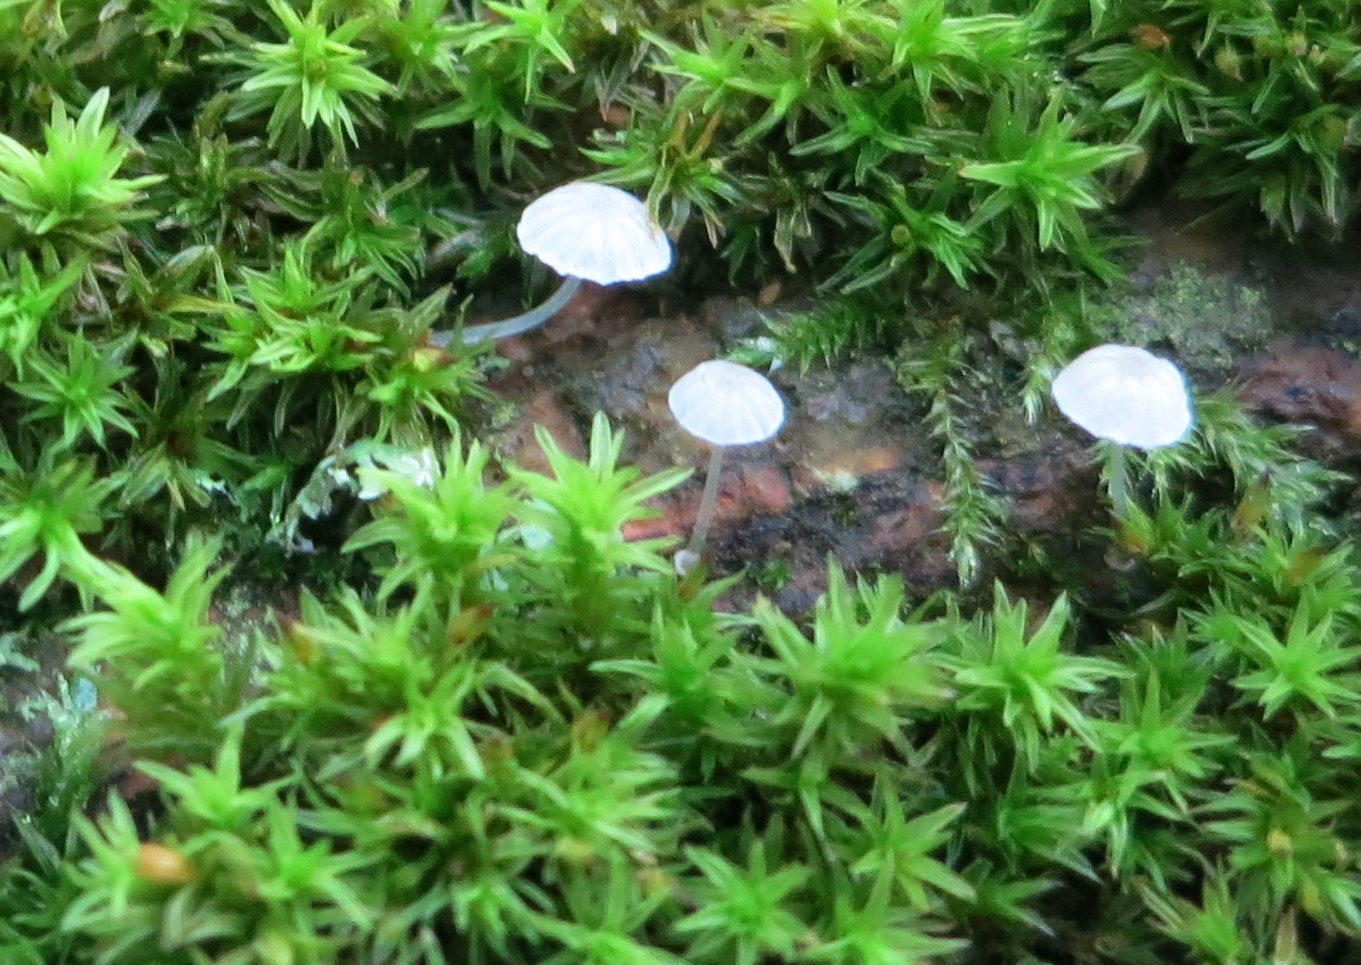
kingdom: Fungi
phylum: Basidiomycota
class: Agaricomycetes
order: Agaricales
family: Mycenaceae
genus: Mycena
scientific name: Mycena clavularis
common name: dunskivet huesvamp
